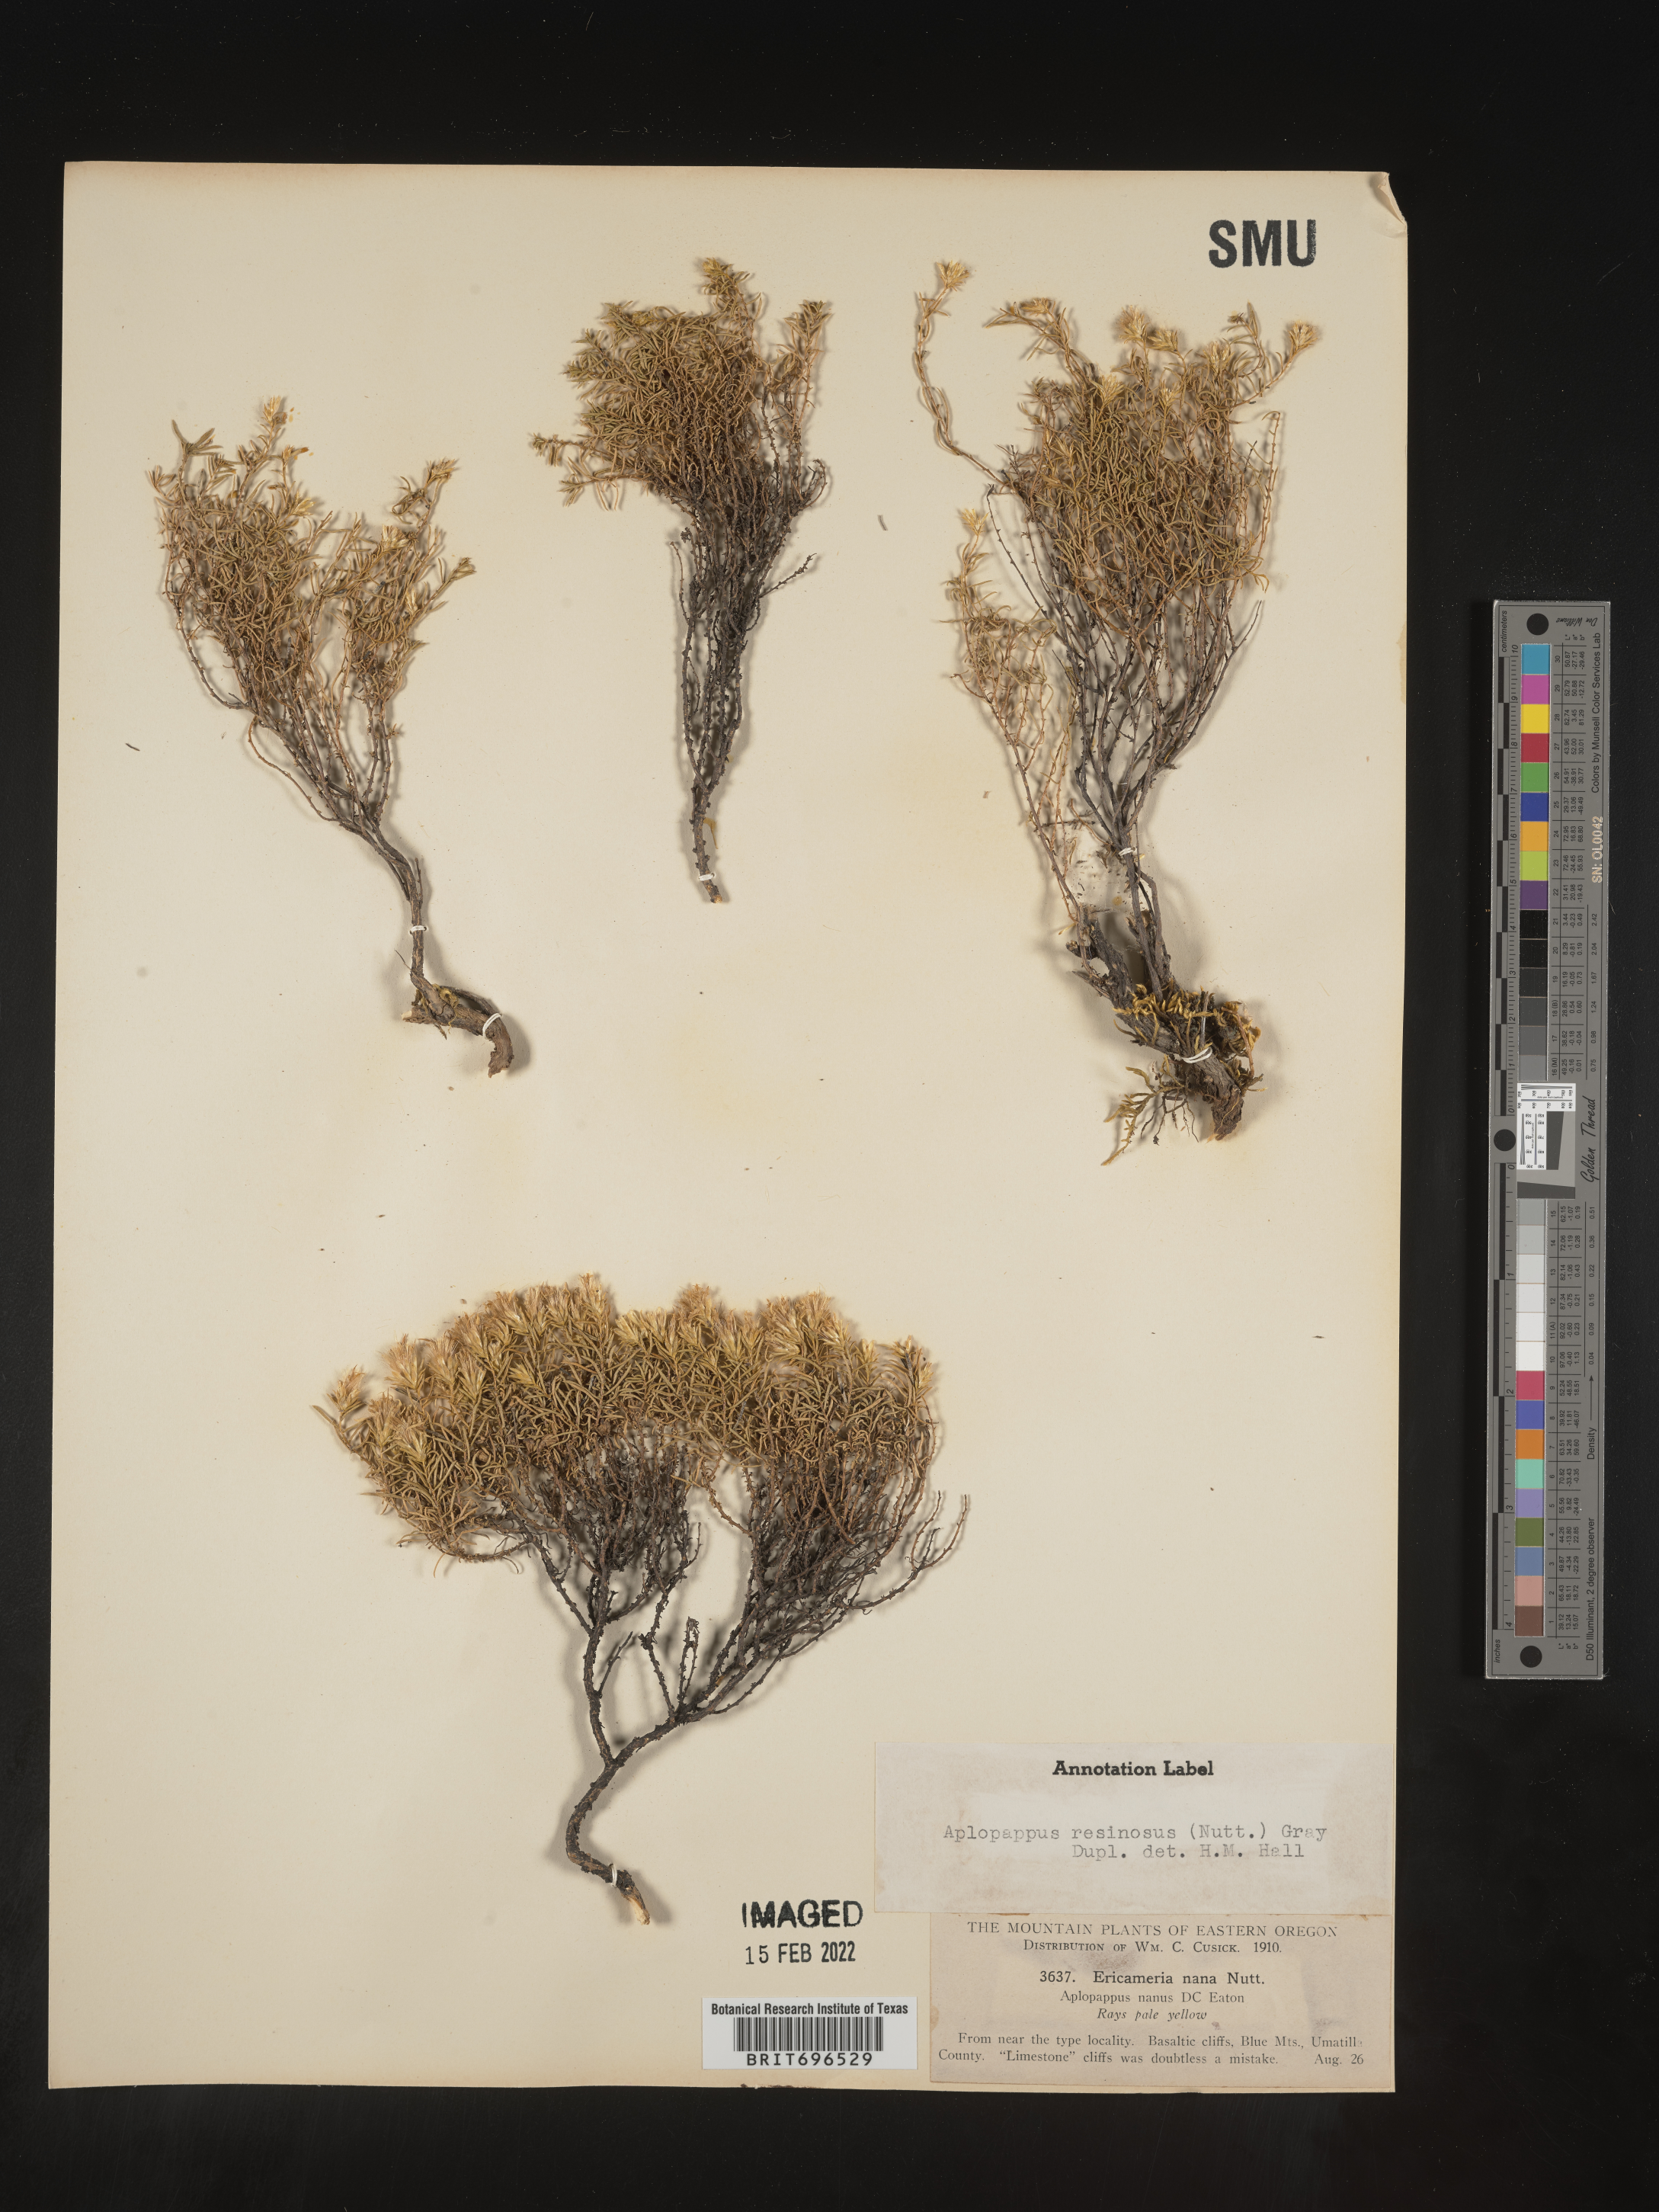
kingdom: Plantae
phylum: Tracheophyta
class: Magnoliopsida
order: Asterales
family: Asteraceae
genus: Ericameria
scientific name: Ericameria resinosa
